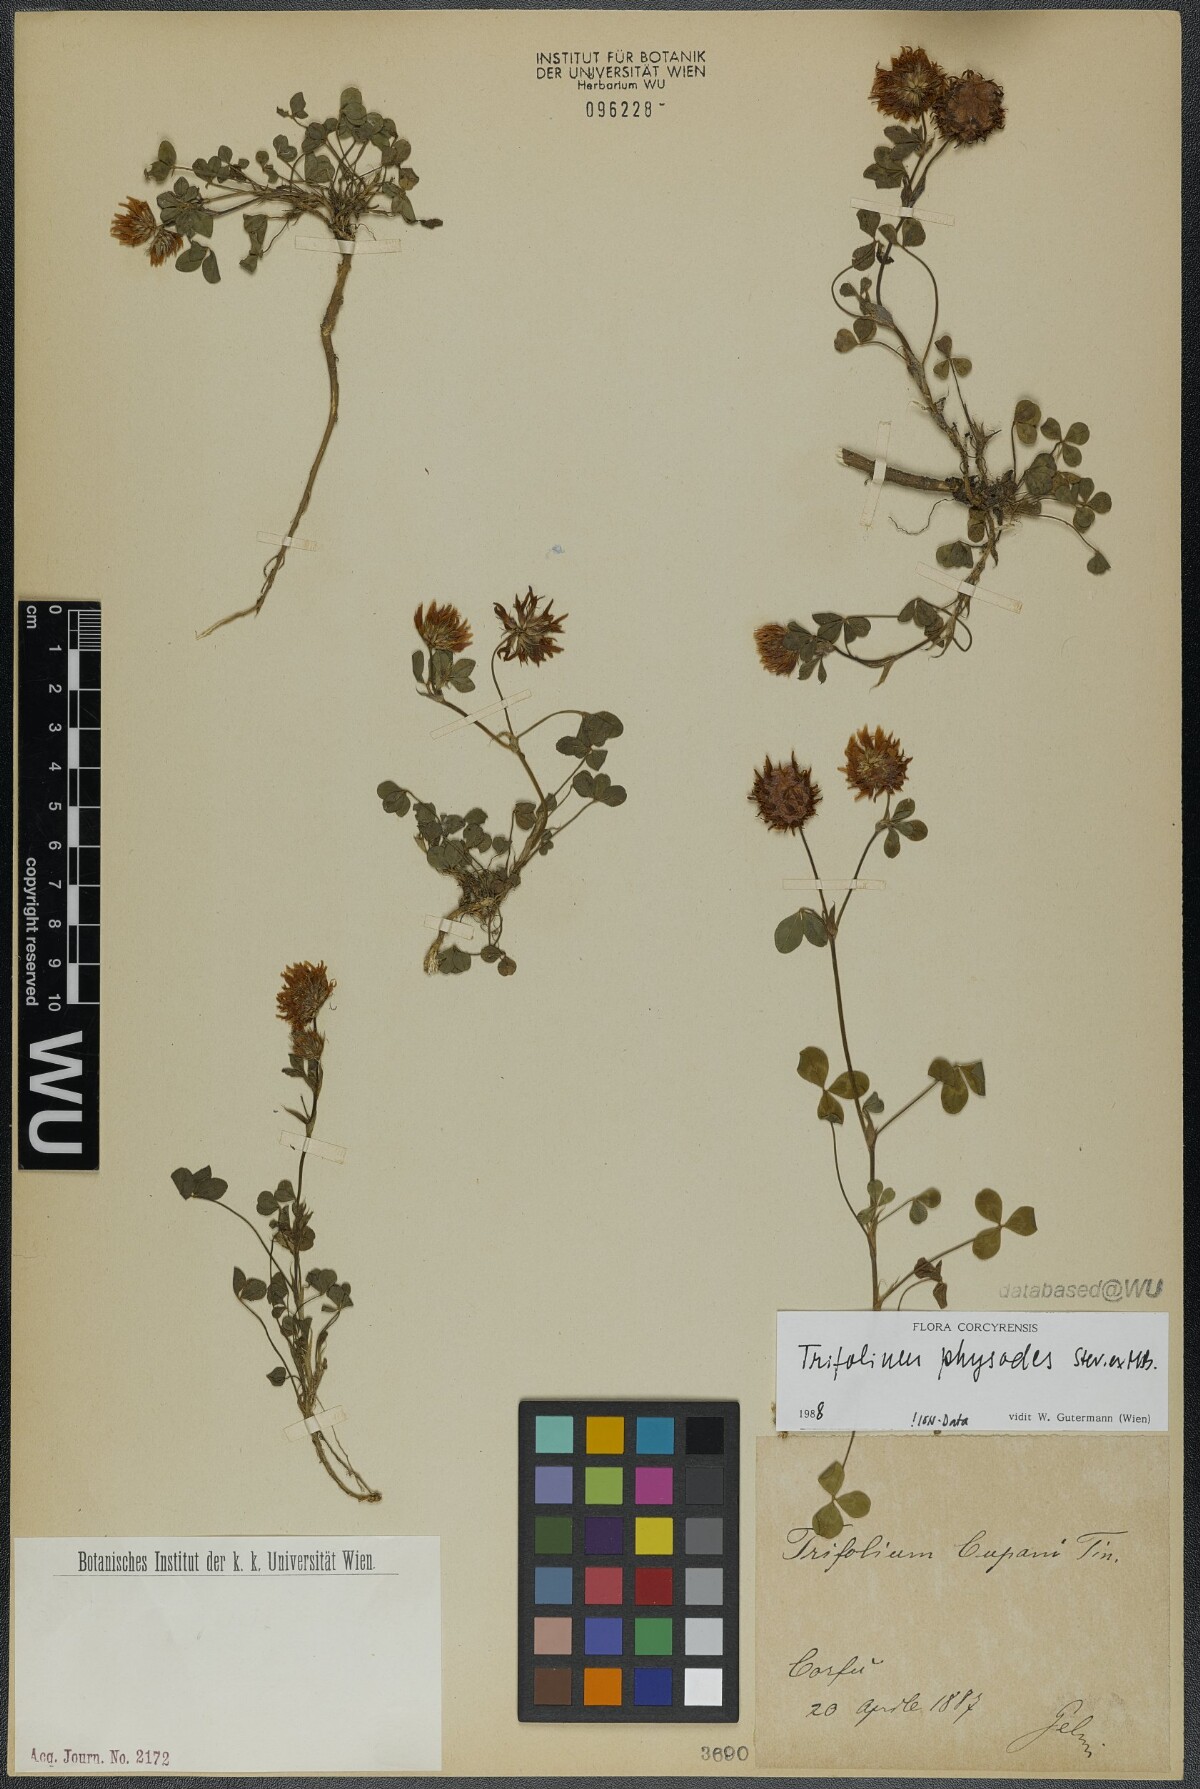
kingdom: Plantae
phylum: Tracheophyta
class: Magnoliopsida
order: Fabales
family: Fabaceae
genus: Trifolium
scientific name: Trifolium physodes
